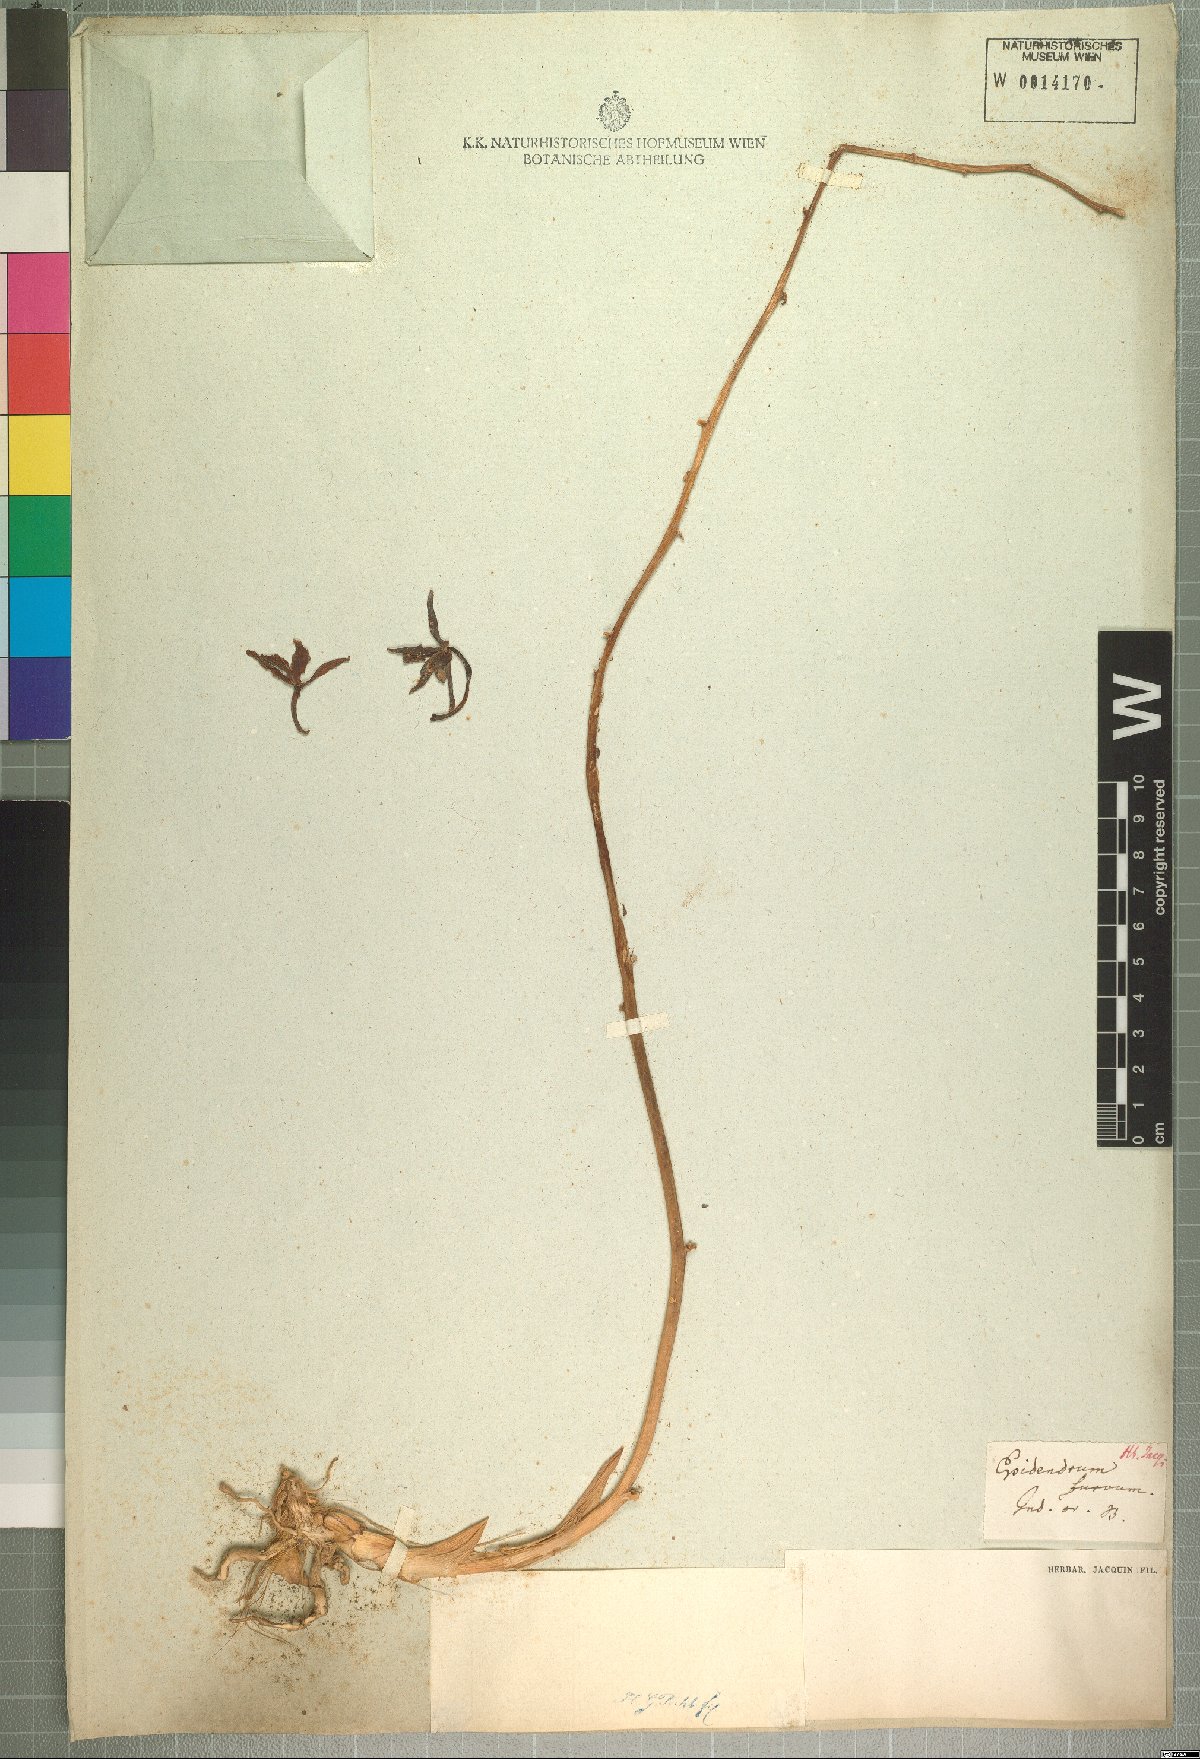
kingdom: Plantae
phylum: Tracheophyta
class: Liliopsida
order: Asparagales
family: Orchidaceae
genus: Vanda
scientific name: Vanda furva
